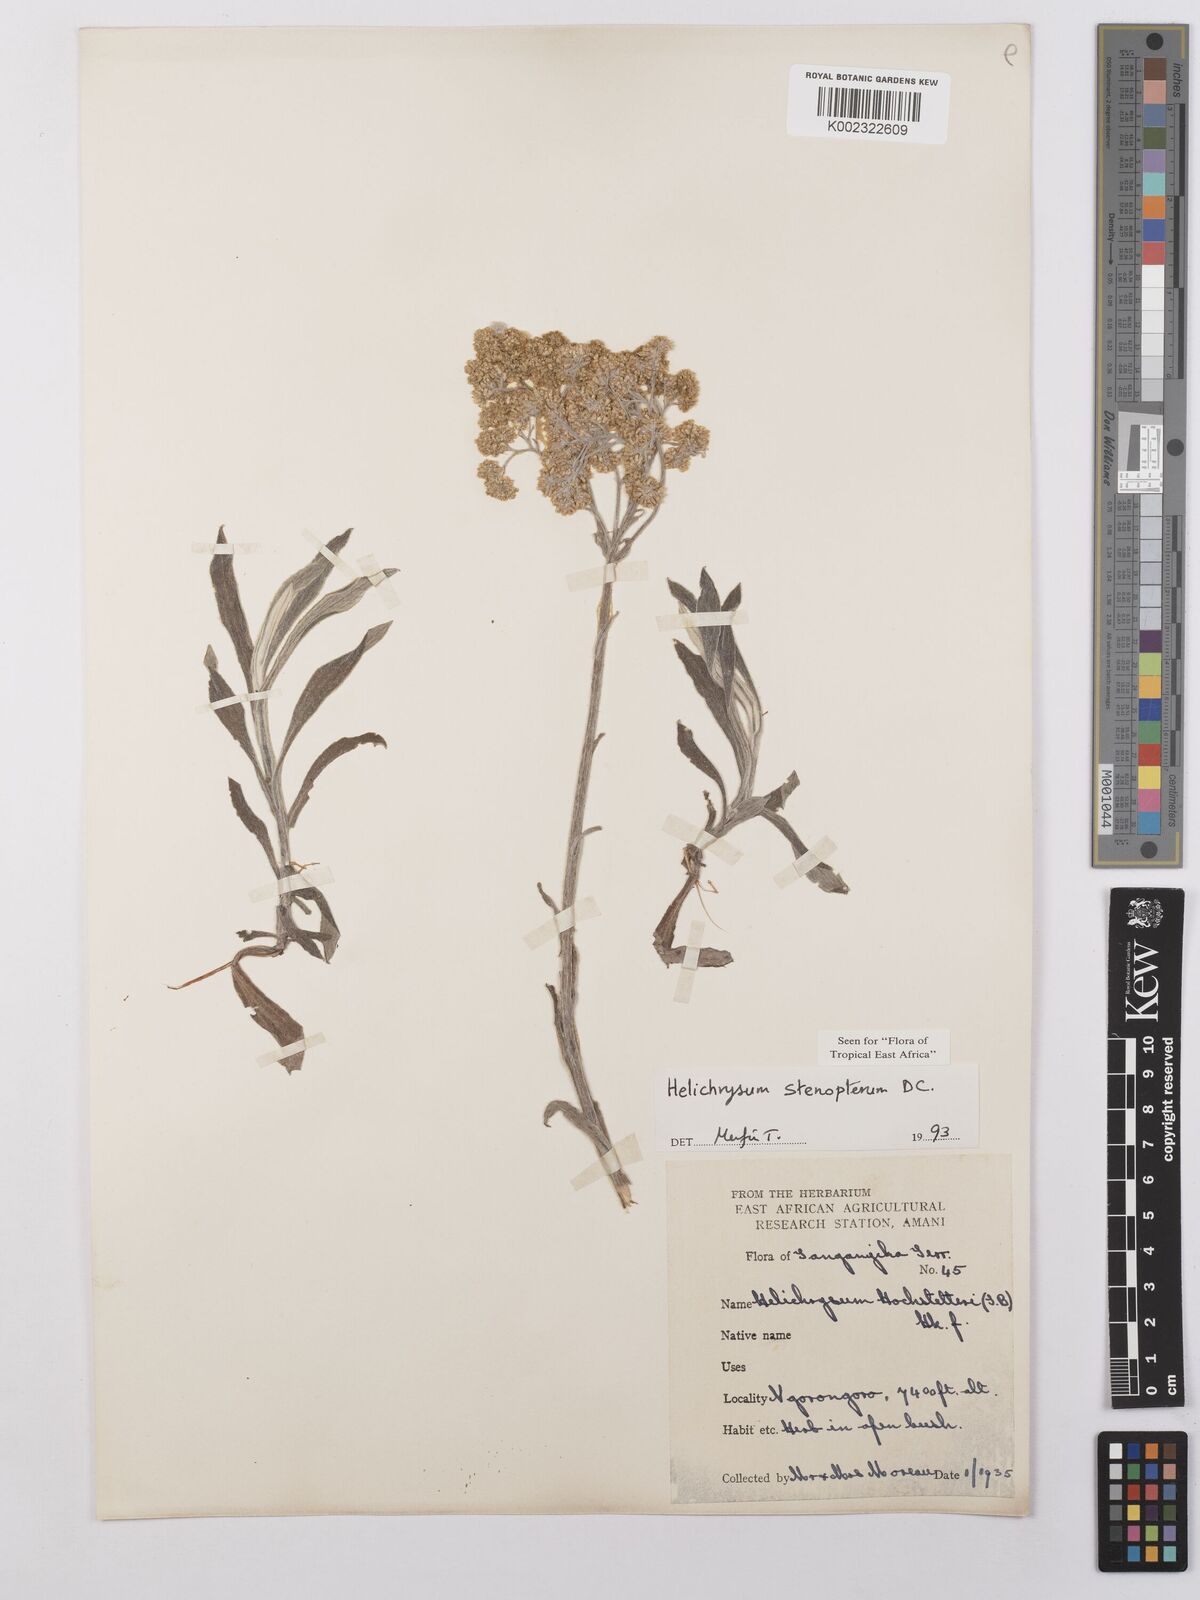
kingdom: Plantae
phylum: Tracheophyta
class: Magnoliopsida
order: Asterales
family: Asteraceae
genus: Helichrysum
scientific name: Helichrysum stenopterum
